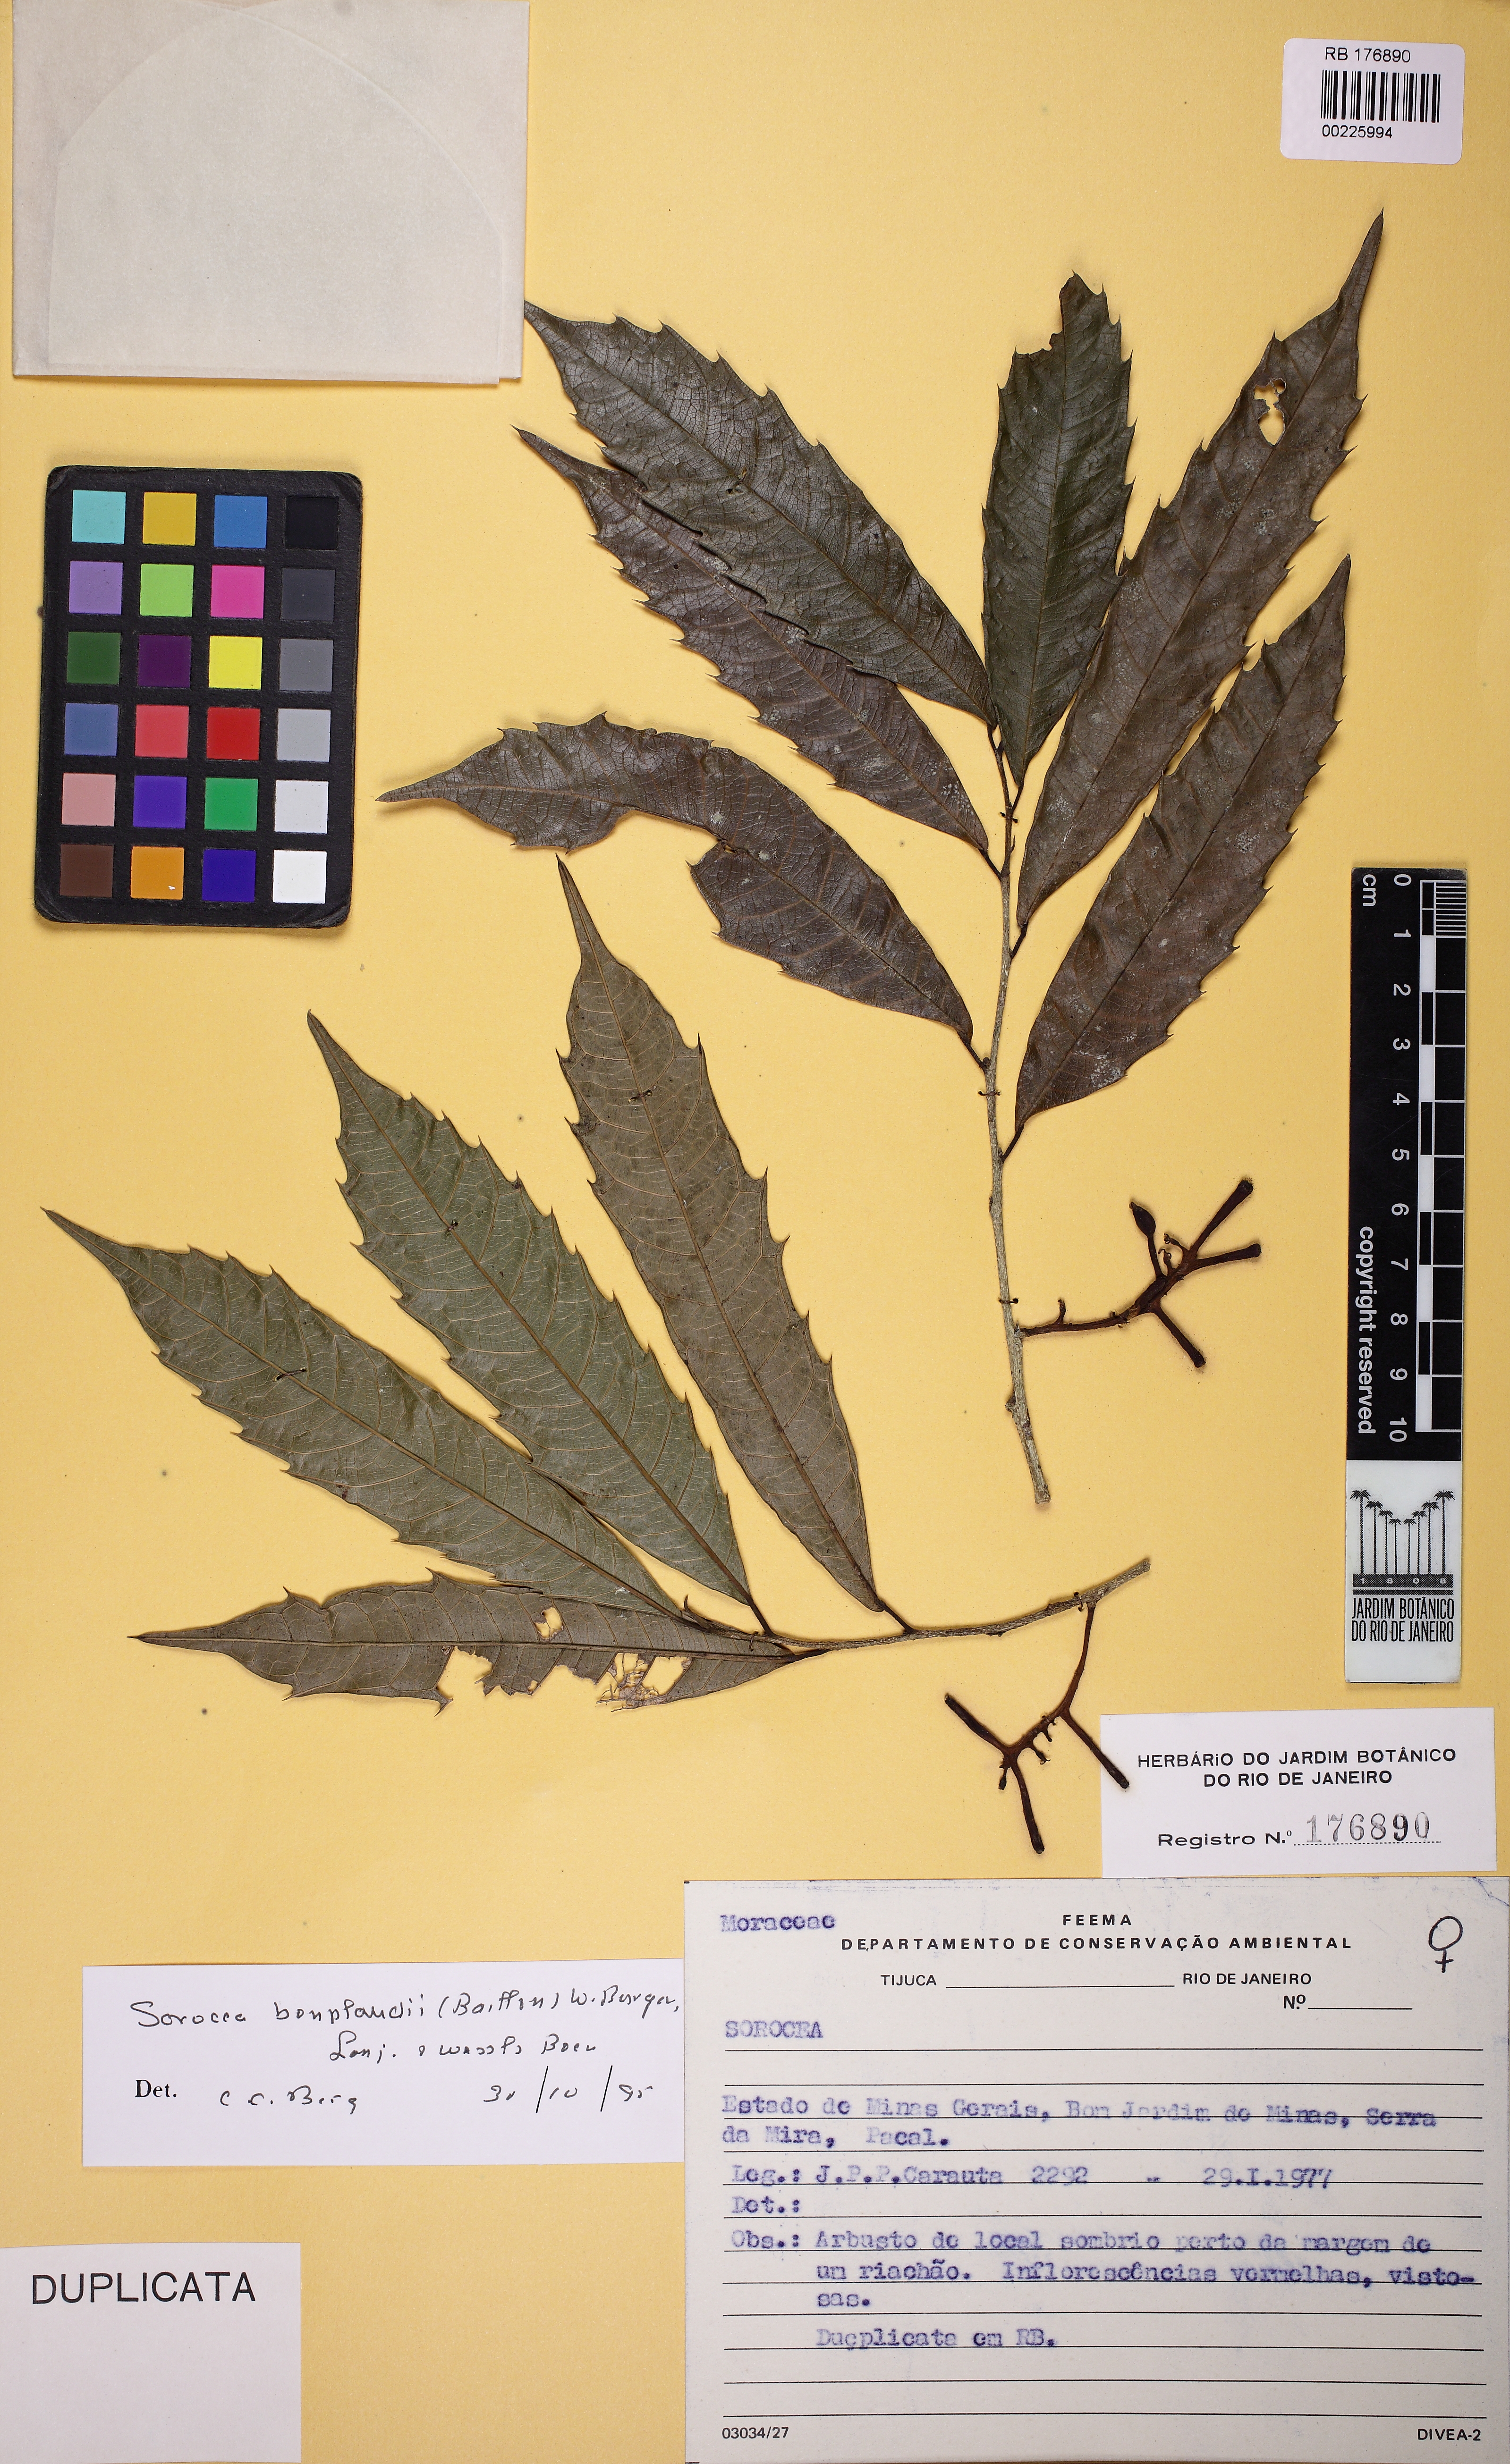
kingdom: Plantae
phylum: Tracheophyta
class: Magnoliopsida
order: Rosales
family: Moraceae
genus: Sorocea
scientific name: Sorocea bonplandii
